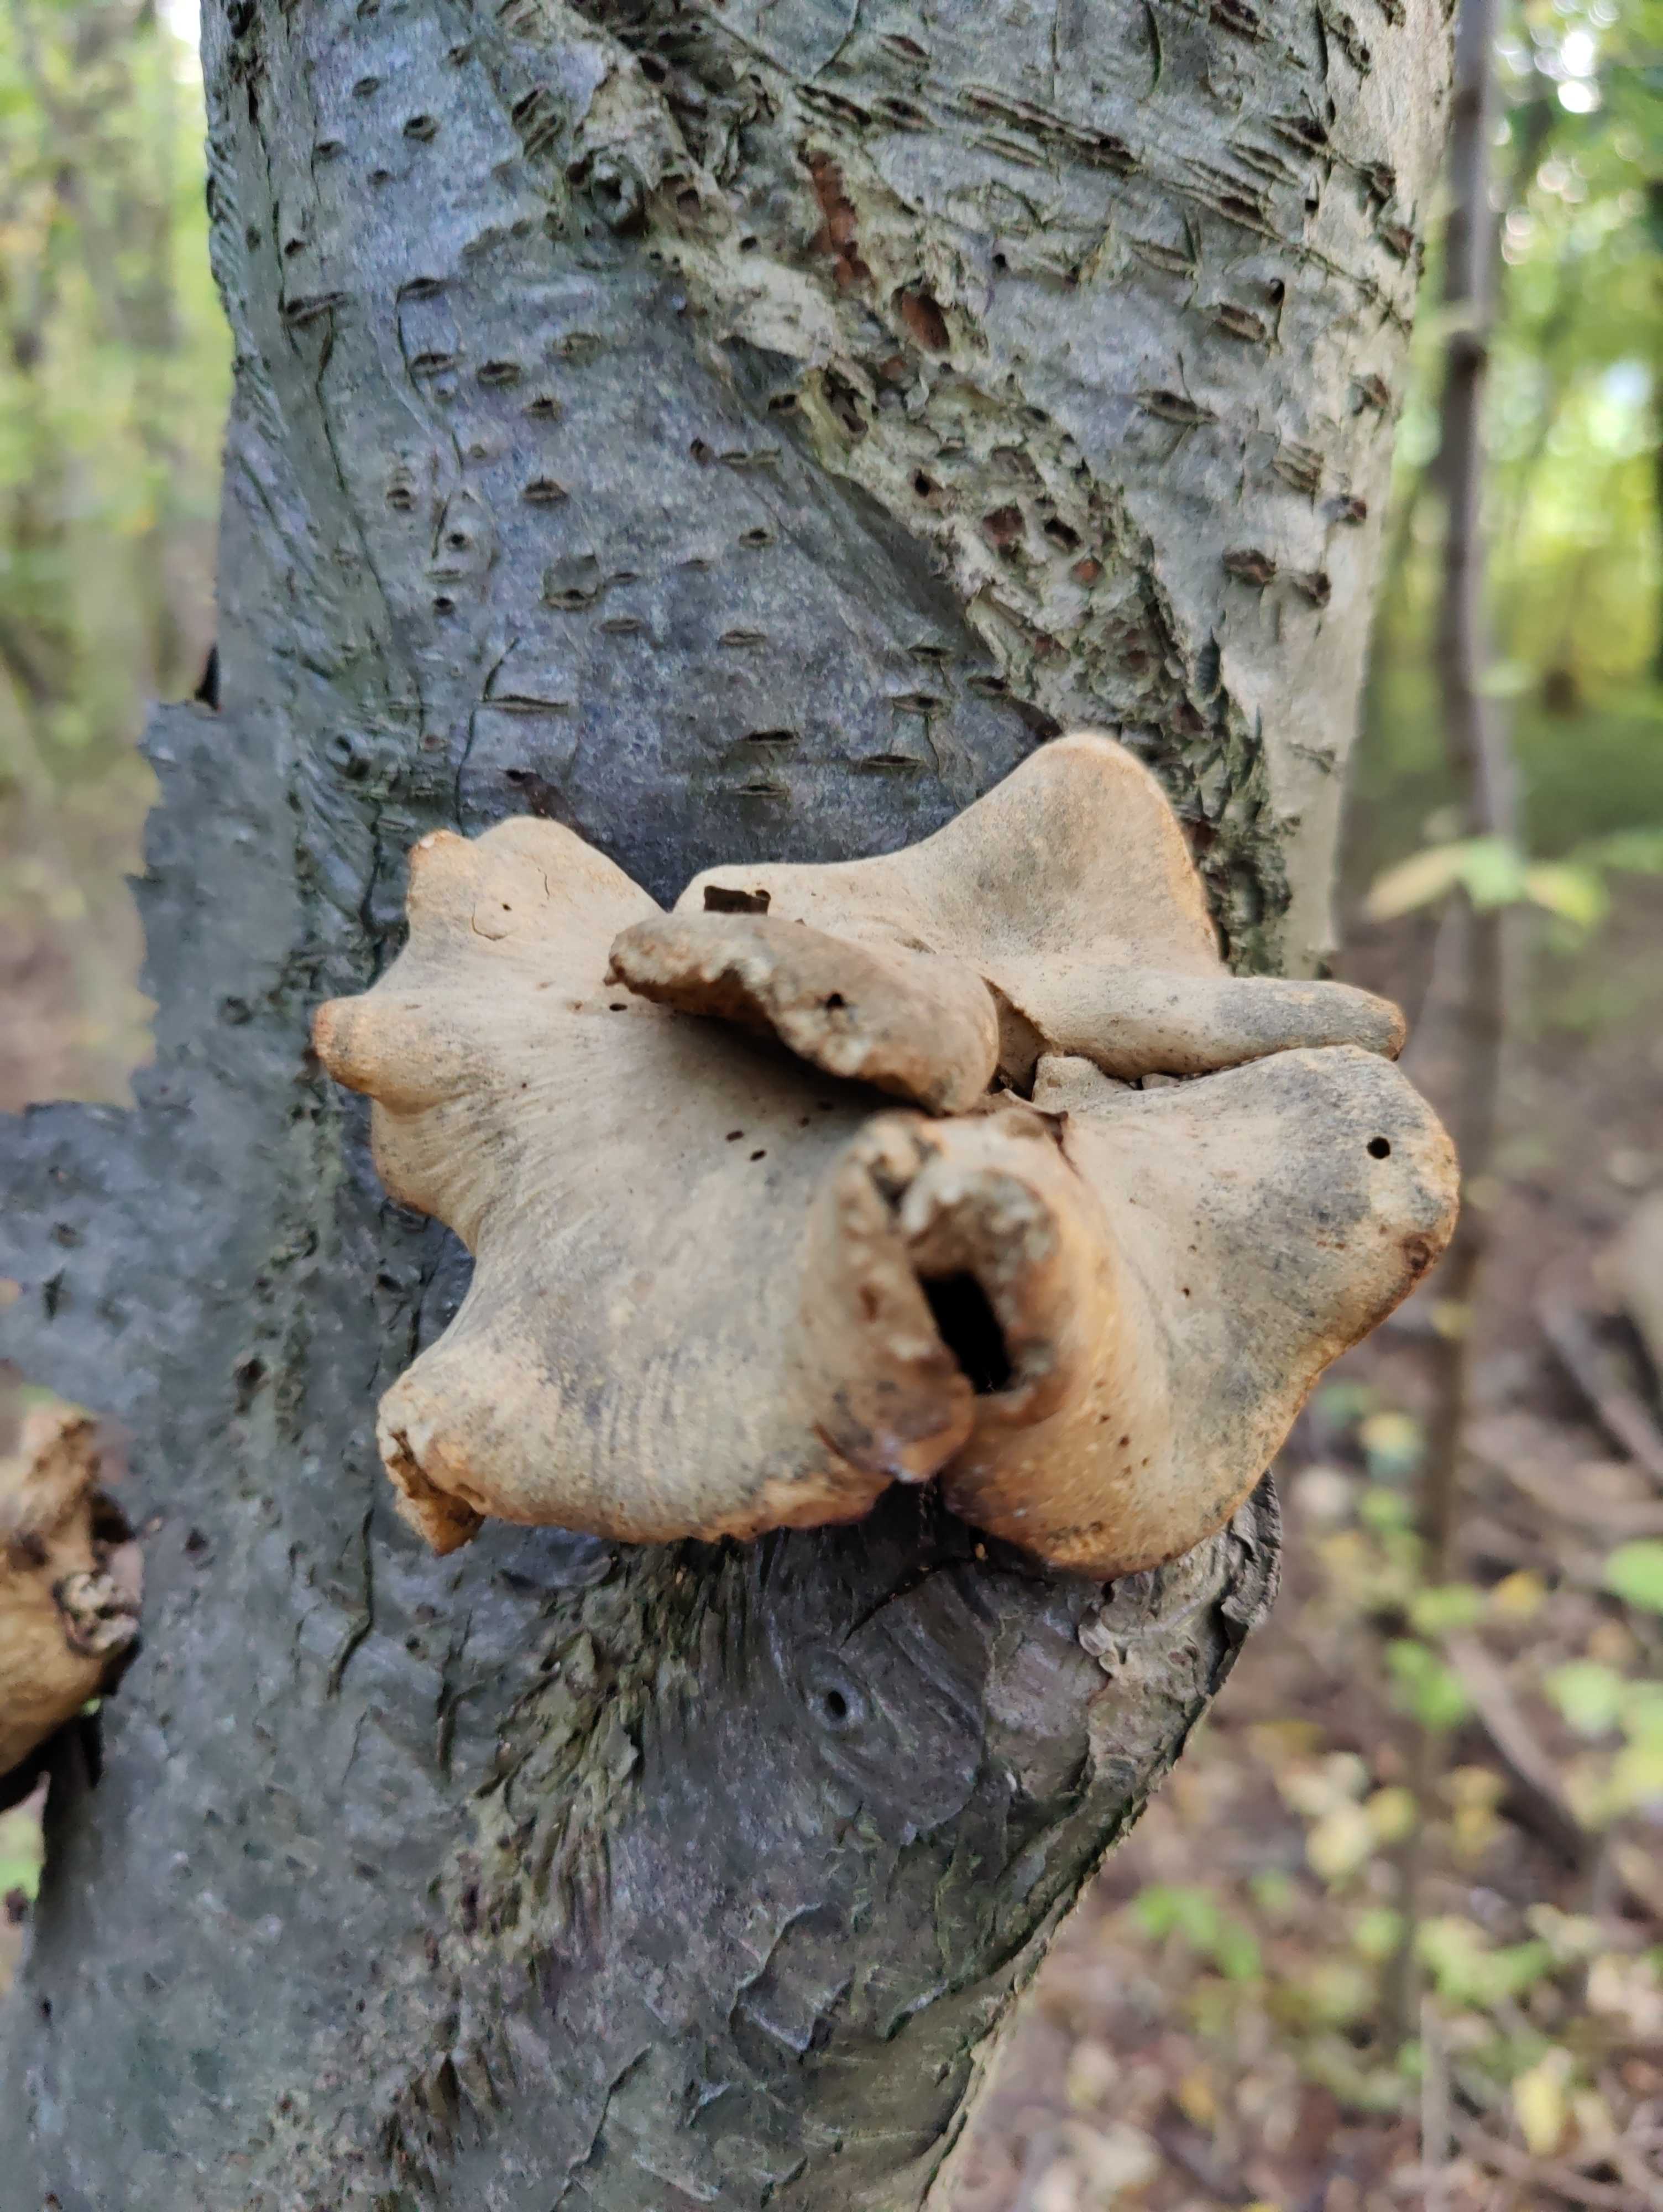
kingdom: Fungi
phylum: Basidiomycota
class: Agaricomycetes
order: Polyporales
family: Polyporaceae
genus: Cerioporus
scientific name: Cerioporus varius
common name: foranderlig stilkporesvamp
